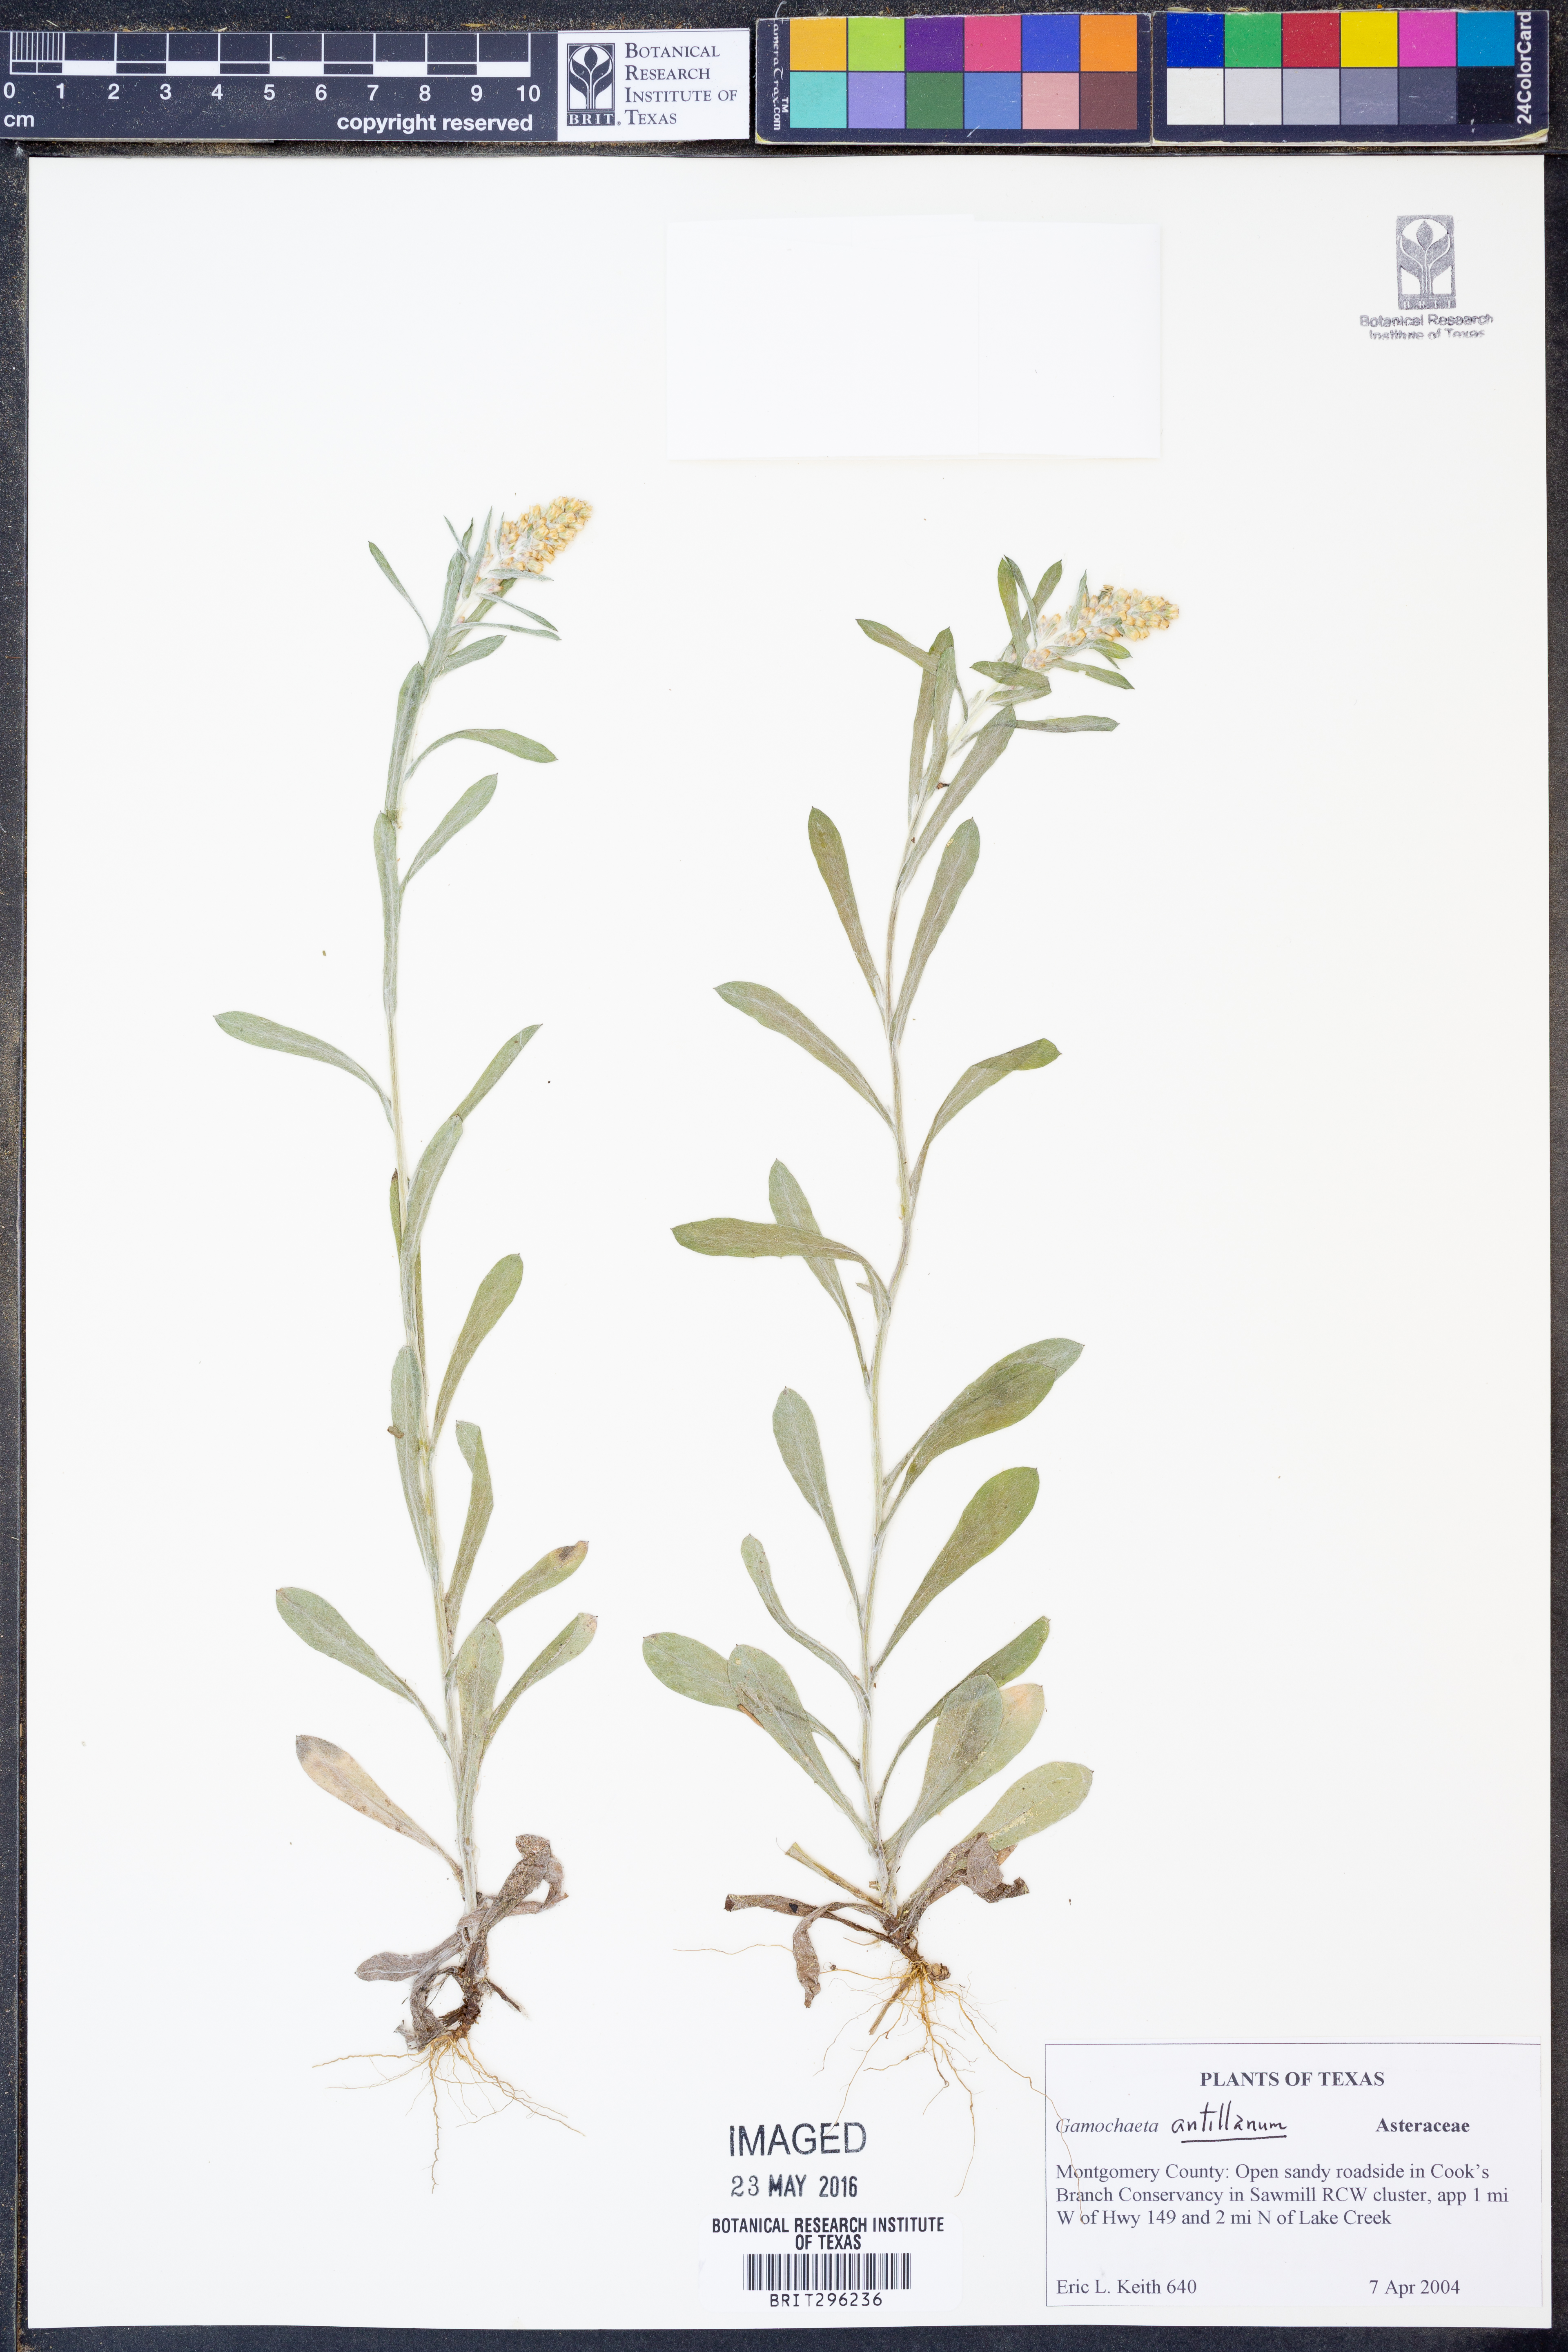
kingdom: Plantae
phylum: Tracheophyta
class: Magnoliopsida
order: Asterales
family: Asteraceae
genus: Gamochaeta
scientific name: Gamochaeta antillana
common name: Delicate everlasting
